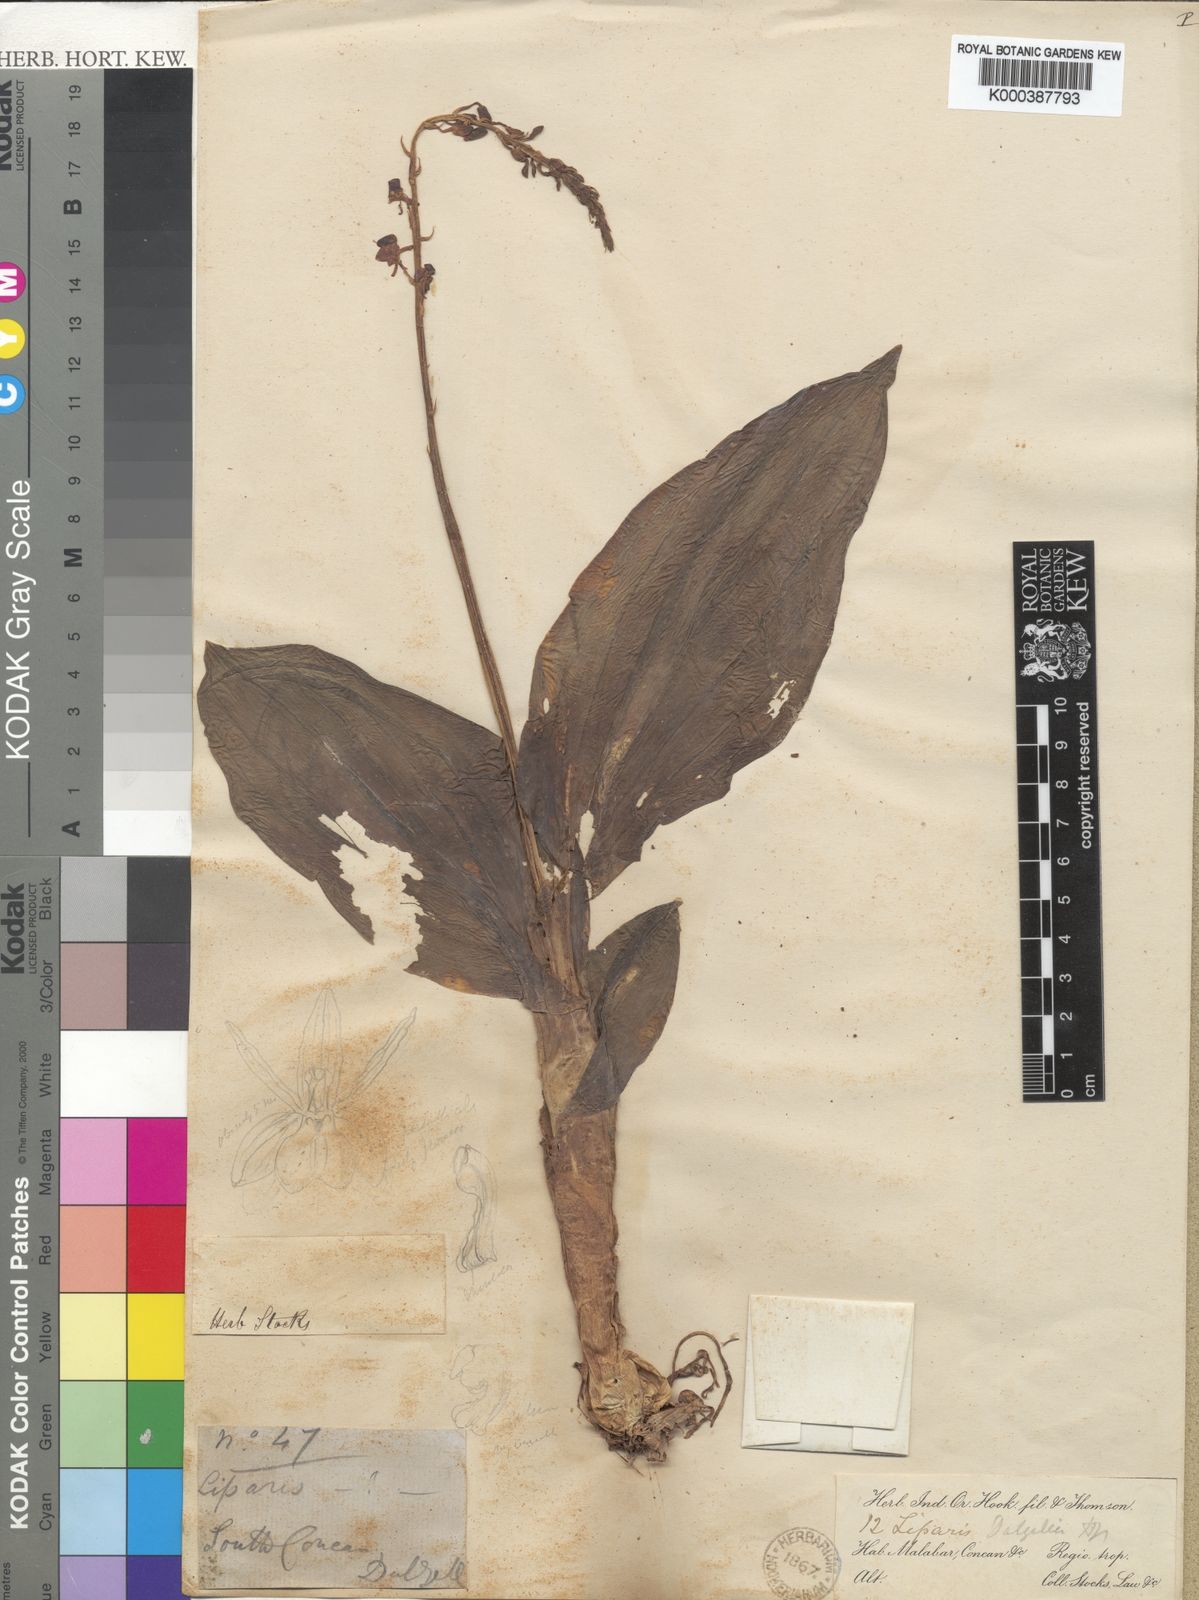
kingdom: Plantae
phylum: Tracheophyta
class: Liliopsida
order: Asparagales
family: Orchidaceae
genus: Liparis
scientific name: Liparis dalzellii
